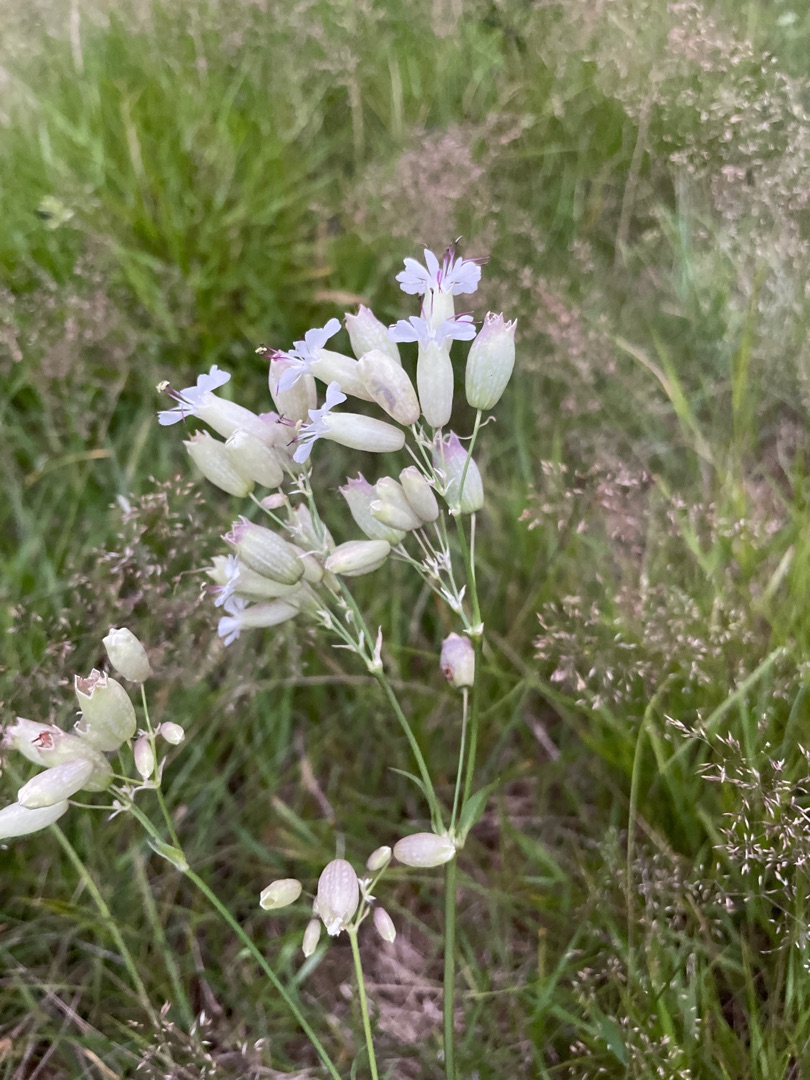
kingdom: Plantae
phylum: Tracheophyta
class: Magnoliopsida
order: Caryophyllales
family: Caryophyllaceae
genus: Silene
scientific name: Silene vulgaris
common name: Blæresmælde
